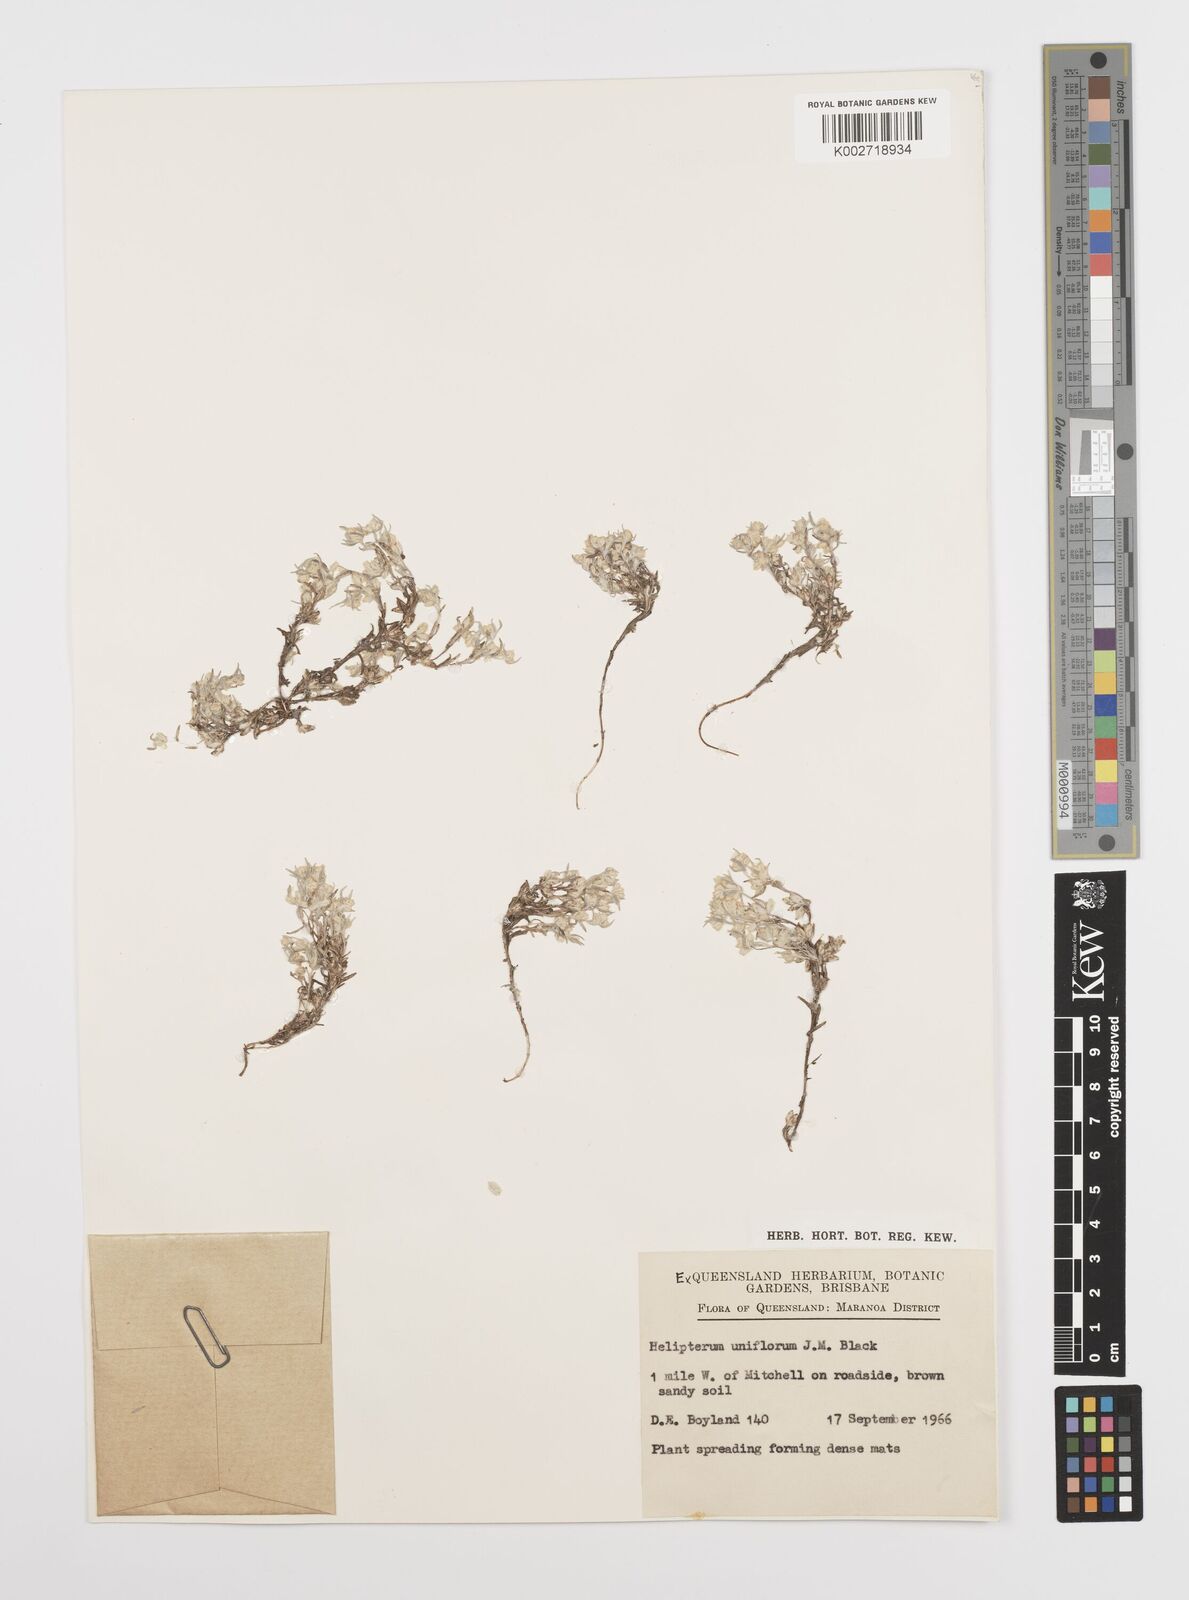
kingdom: Plantae
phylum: Tracheophyta
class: Magnoliopsida
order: Asterales
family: Asteraceae
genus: Rhodanthe
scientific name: Rhodanthe uniflora
